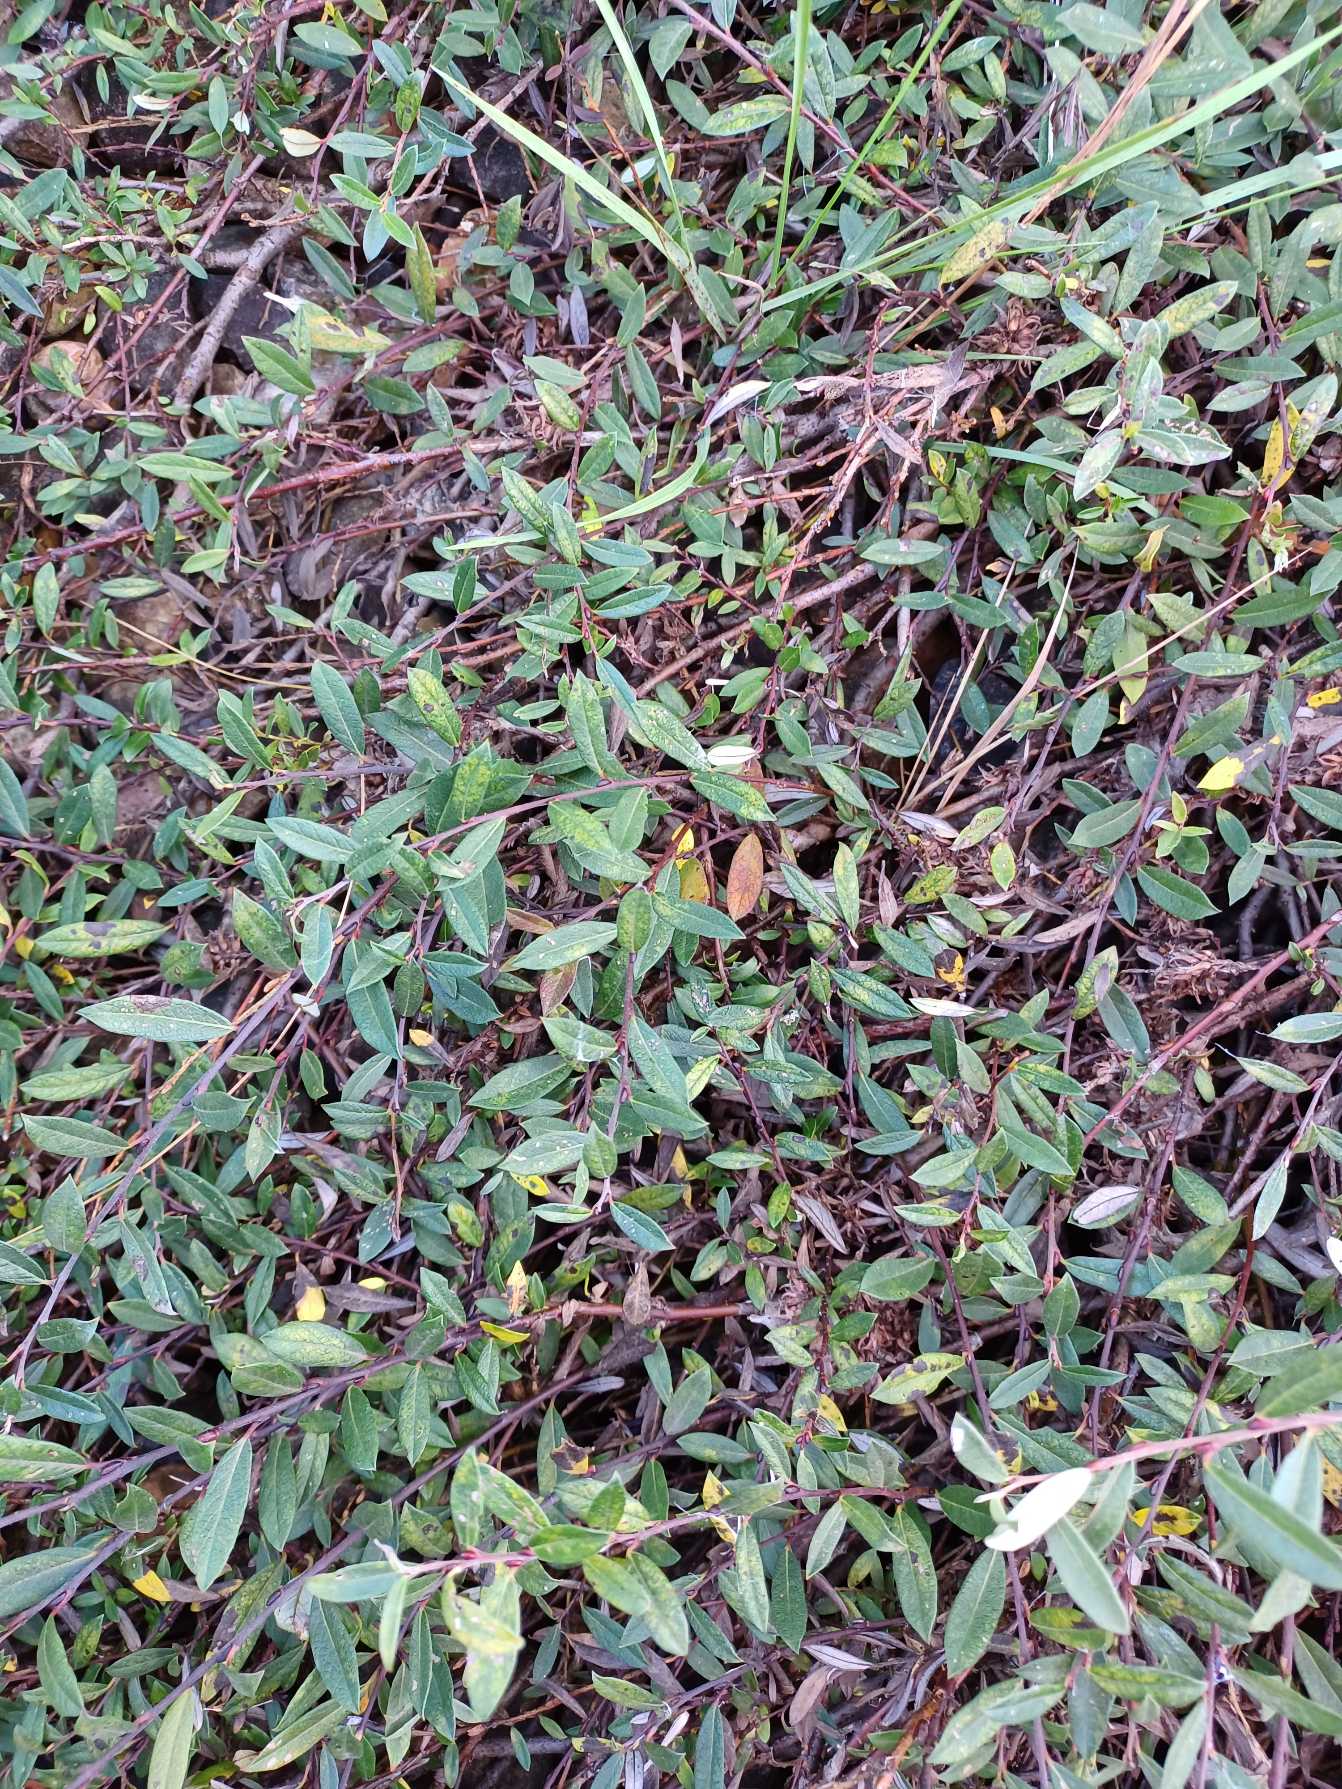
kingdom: Plantae
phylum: Tracheophyta
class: Magnoliopsida
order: Malpighiales
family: Salicaceae
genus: Salix
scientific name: Salix repens
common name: Krybende pil
